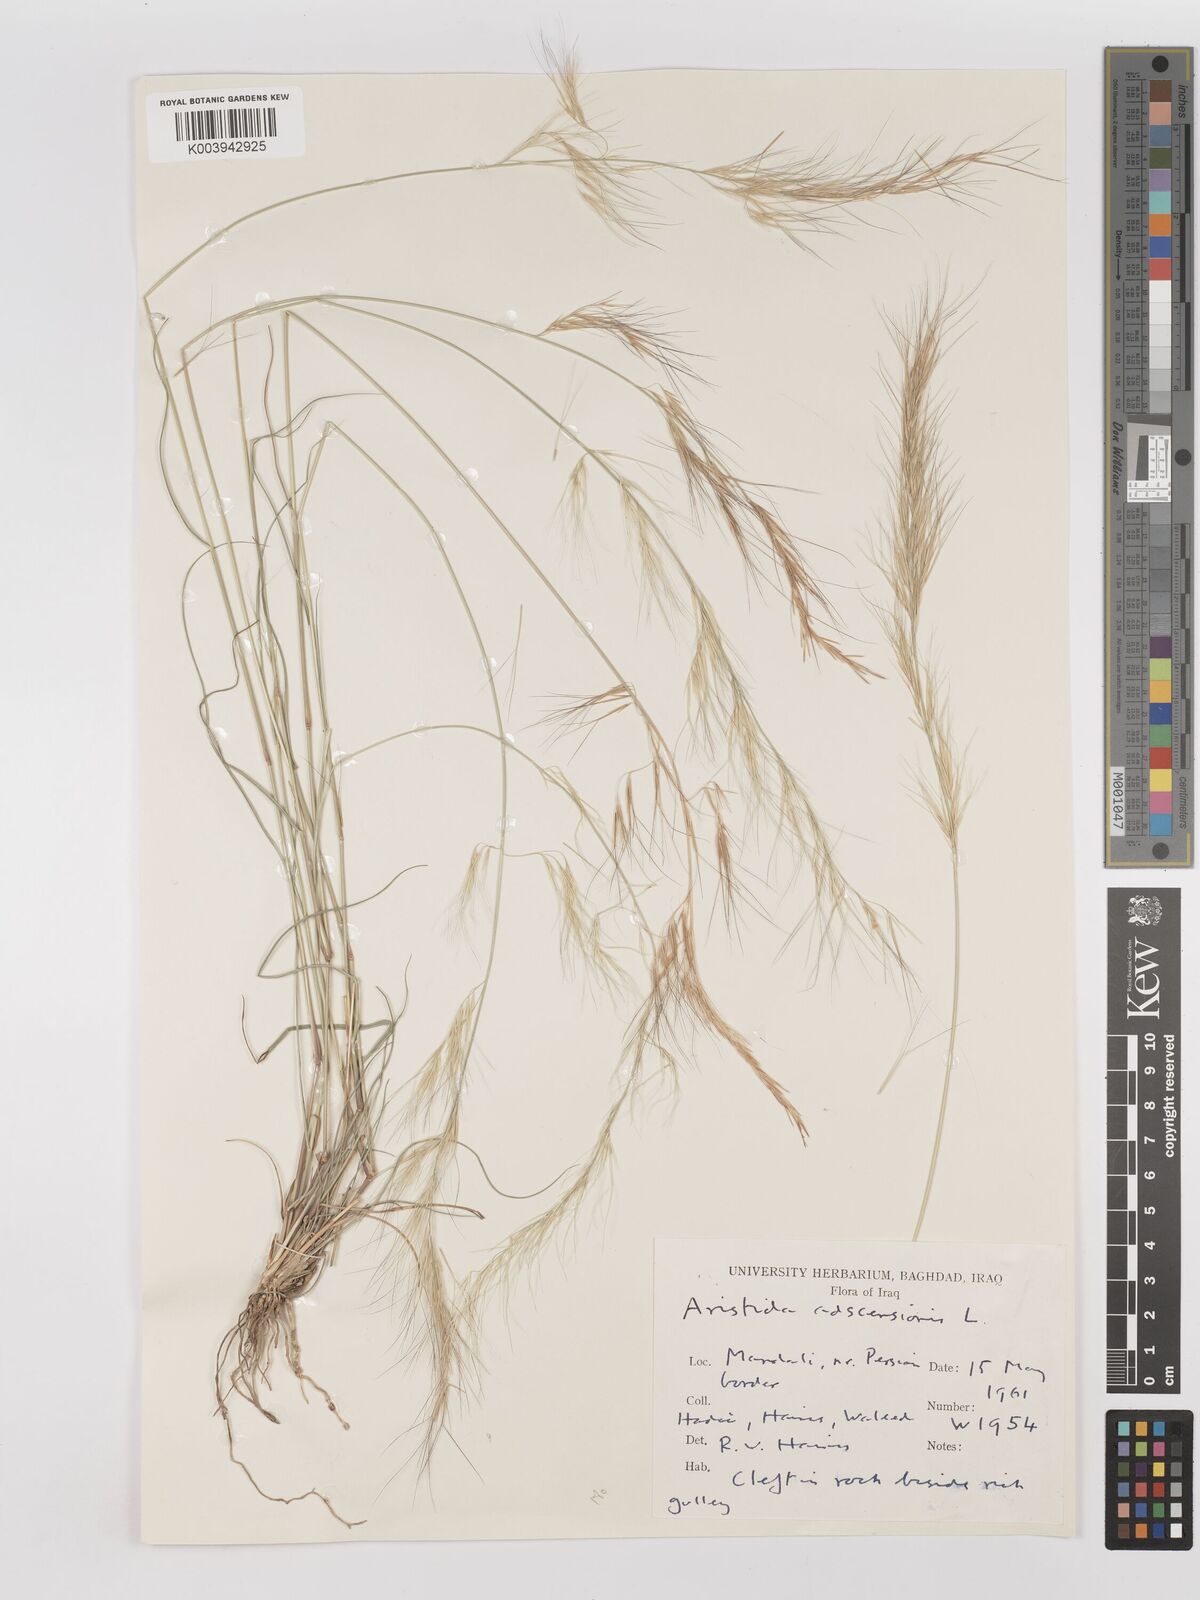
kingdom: Plantae
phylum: Tracheophyta
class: Liliopsida
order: Poales
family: Poaceae
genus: Aristida
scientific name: Aristida adscensionis
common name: Sixweeks threeawn
